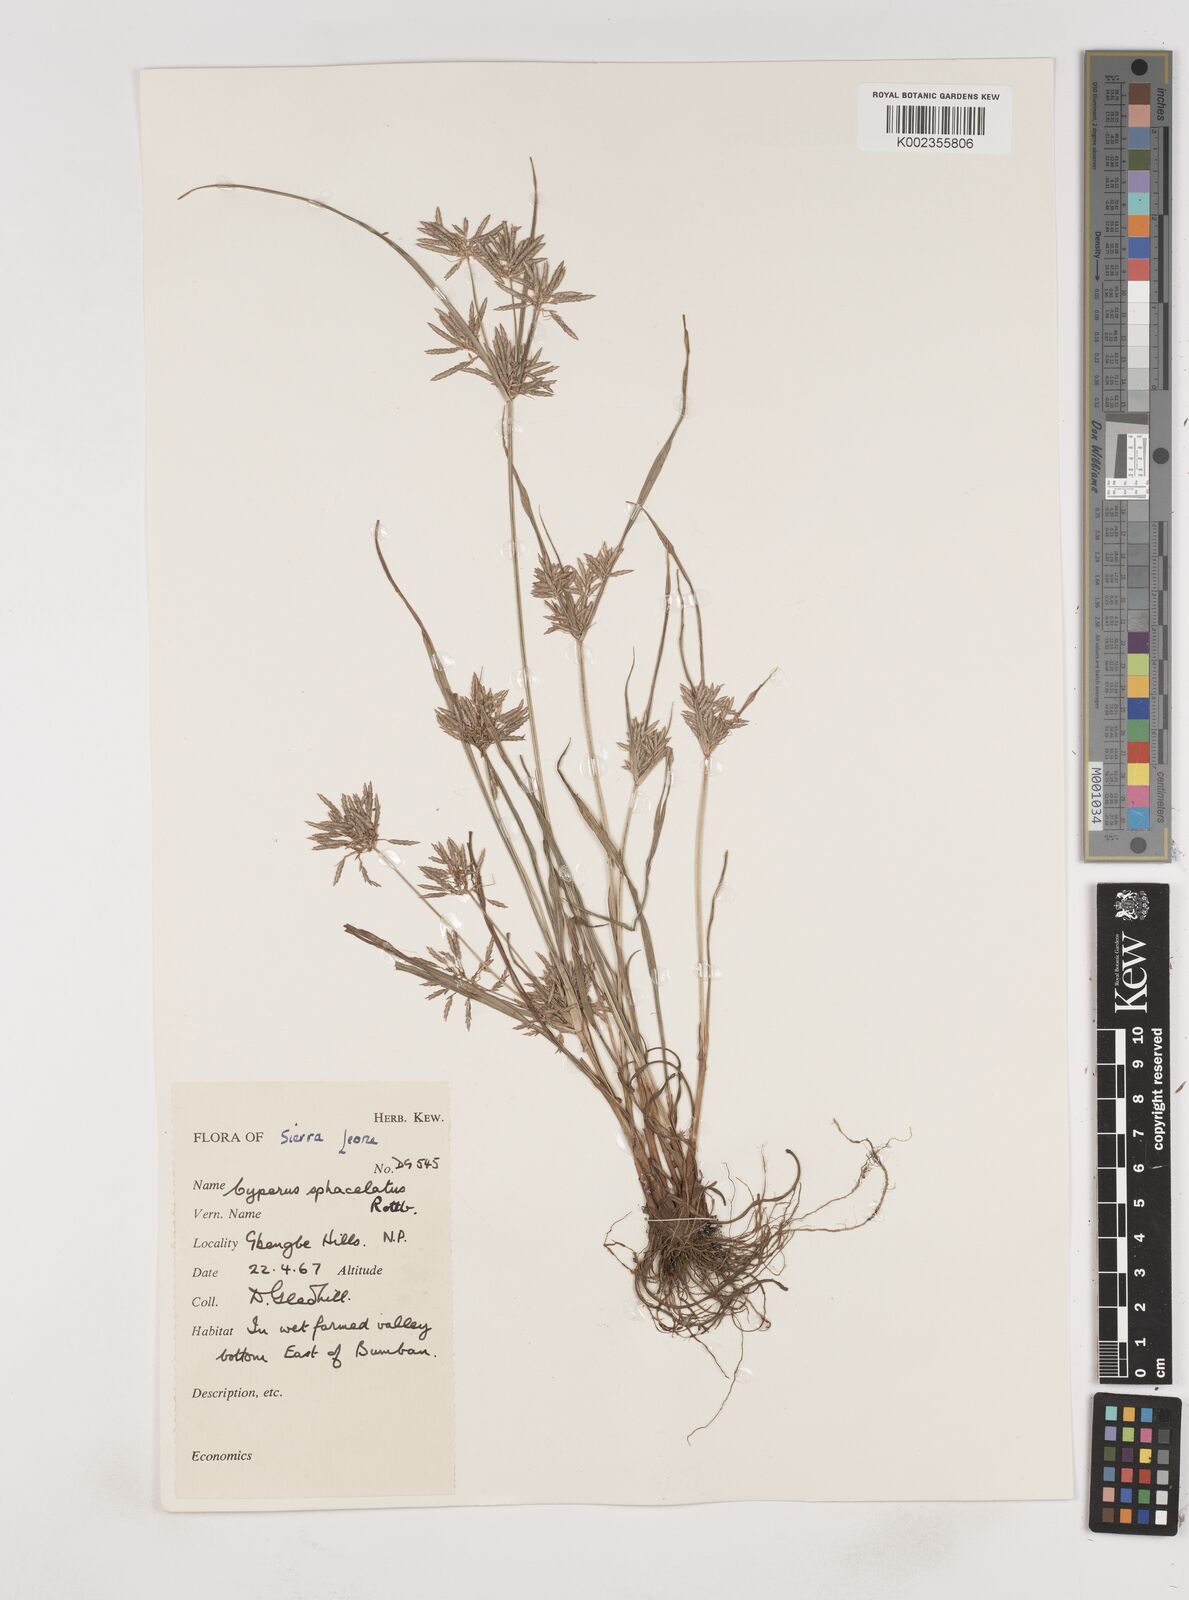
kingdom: Plantae
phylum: Tracheophyta
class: Liliopsida
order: Poales
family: Cyperaceae
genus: Cyperus
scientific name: Cyperus sphacelatus
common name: Roadside flatsedge
